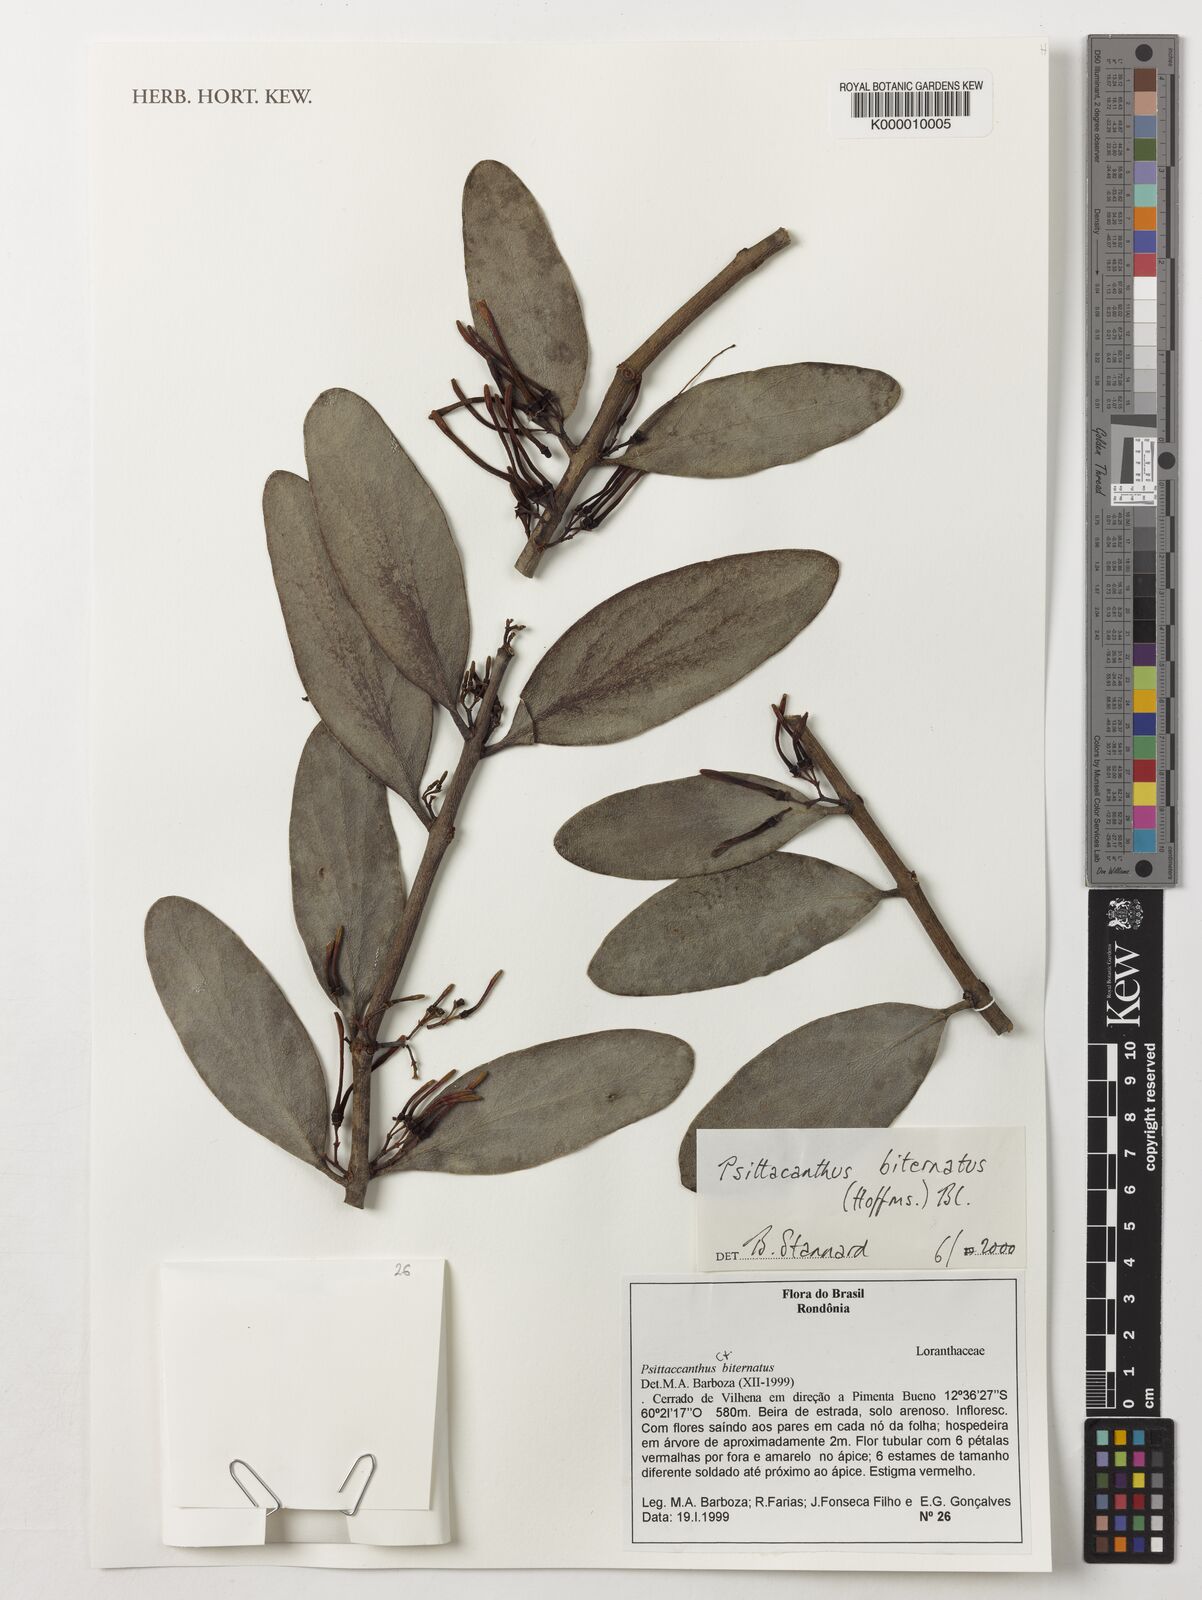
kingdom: Plantae
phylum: Tracheophyta
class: Magnoliopsida
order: Santalales
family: Loranthaceae
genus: Psittacanthus
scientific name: Psittacanthus
